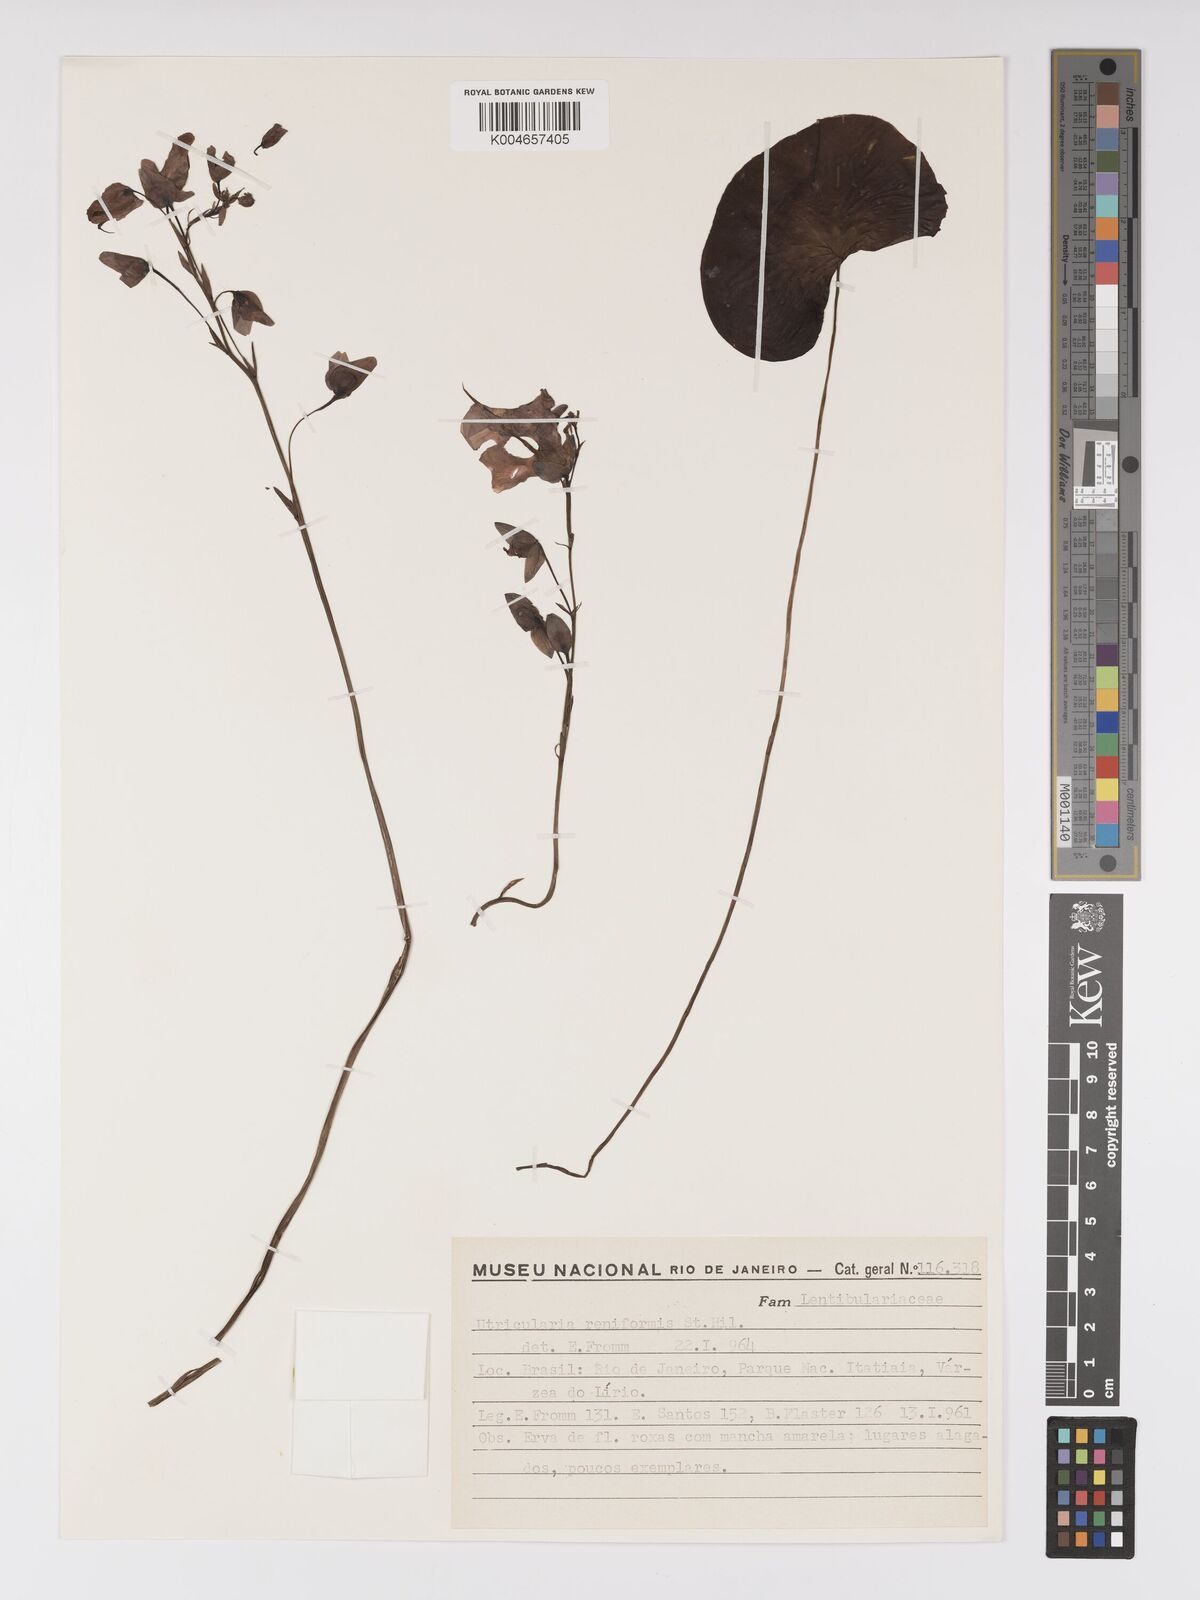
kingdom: Plantae
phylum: Tracheophyta
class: Magnoliopsida
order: Lamiales
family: Lentibulariaceae
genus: Utricularia
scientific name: Utricularia reniformis
